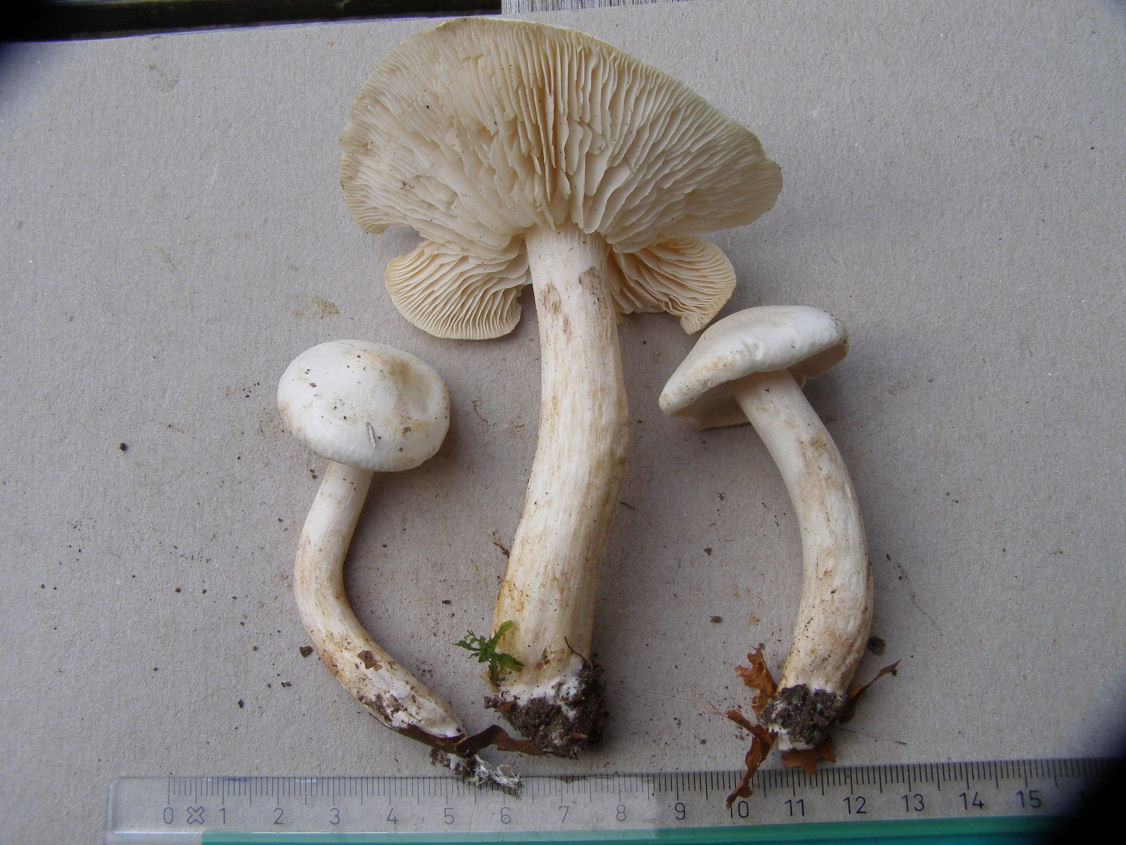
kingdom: Fungi
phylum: Basidiomycota
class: Agaricomycetes
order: Agaricales
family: Tricholomataceae
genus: Tricholoma
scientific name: Tricholoma lascivum
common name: stinkende ridderhat
